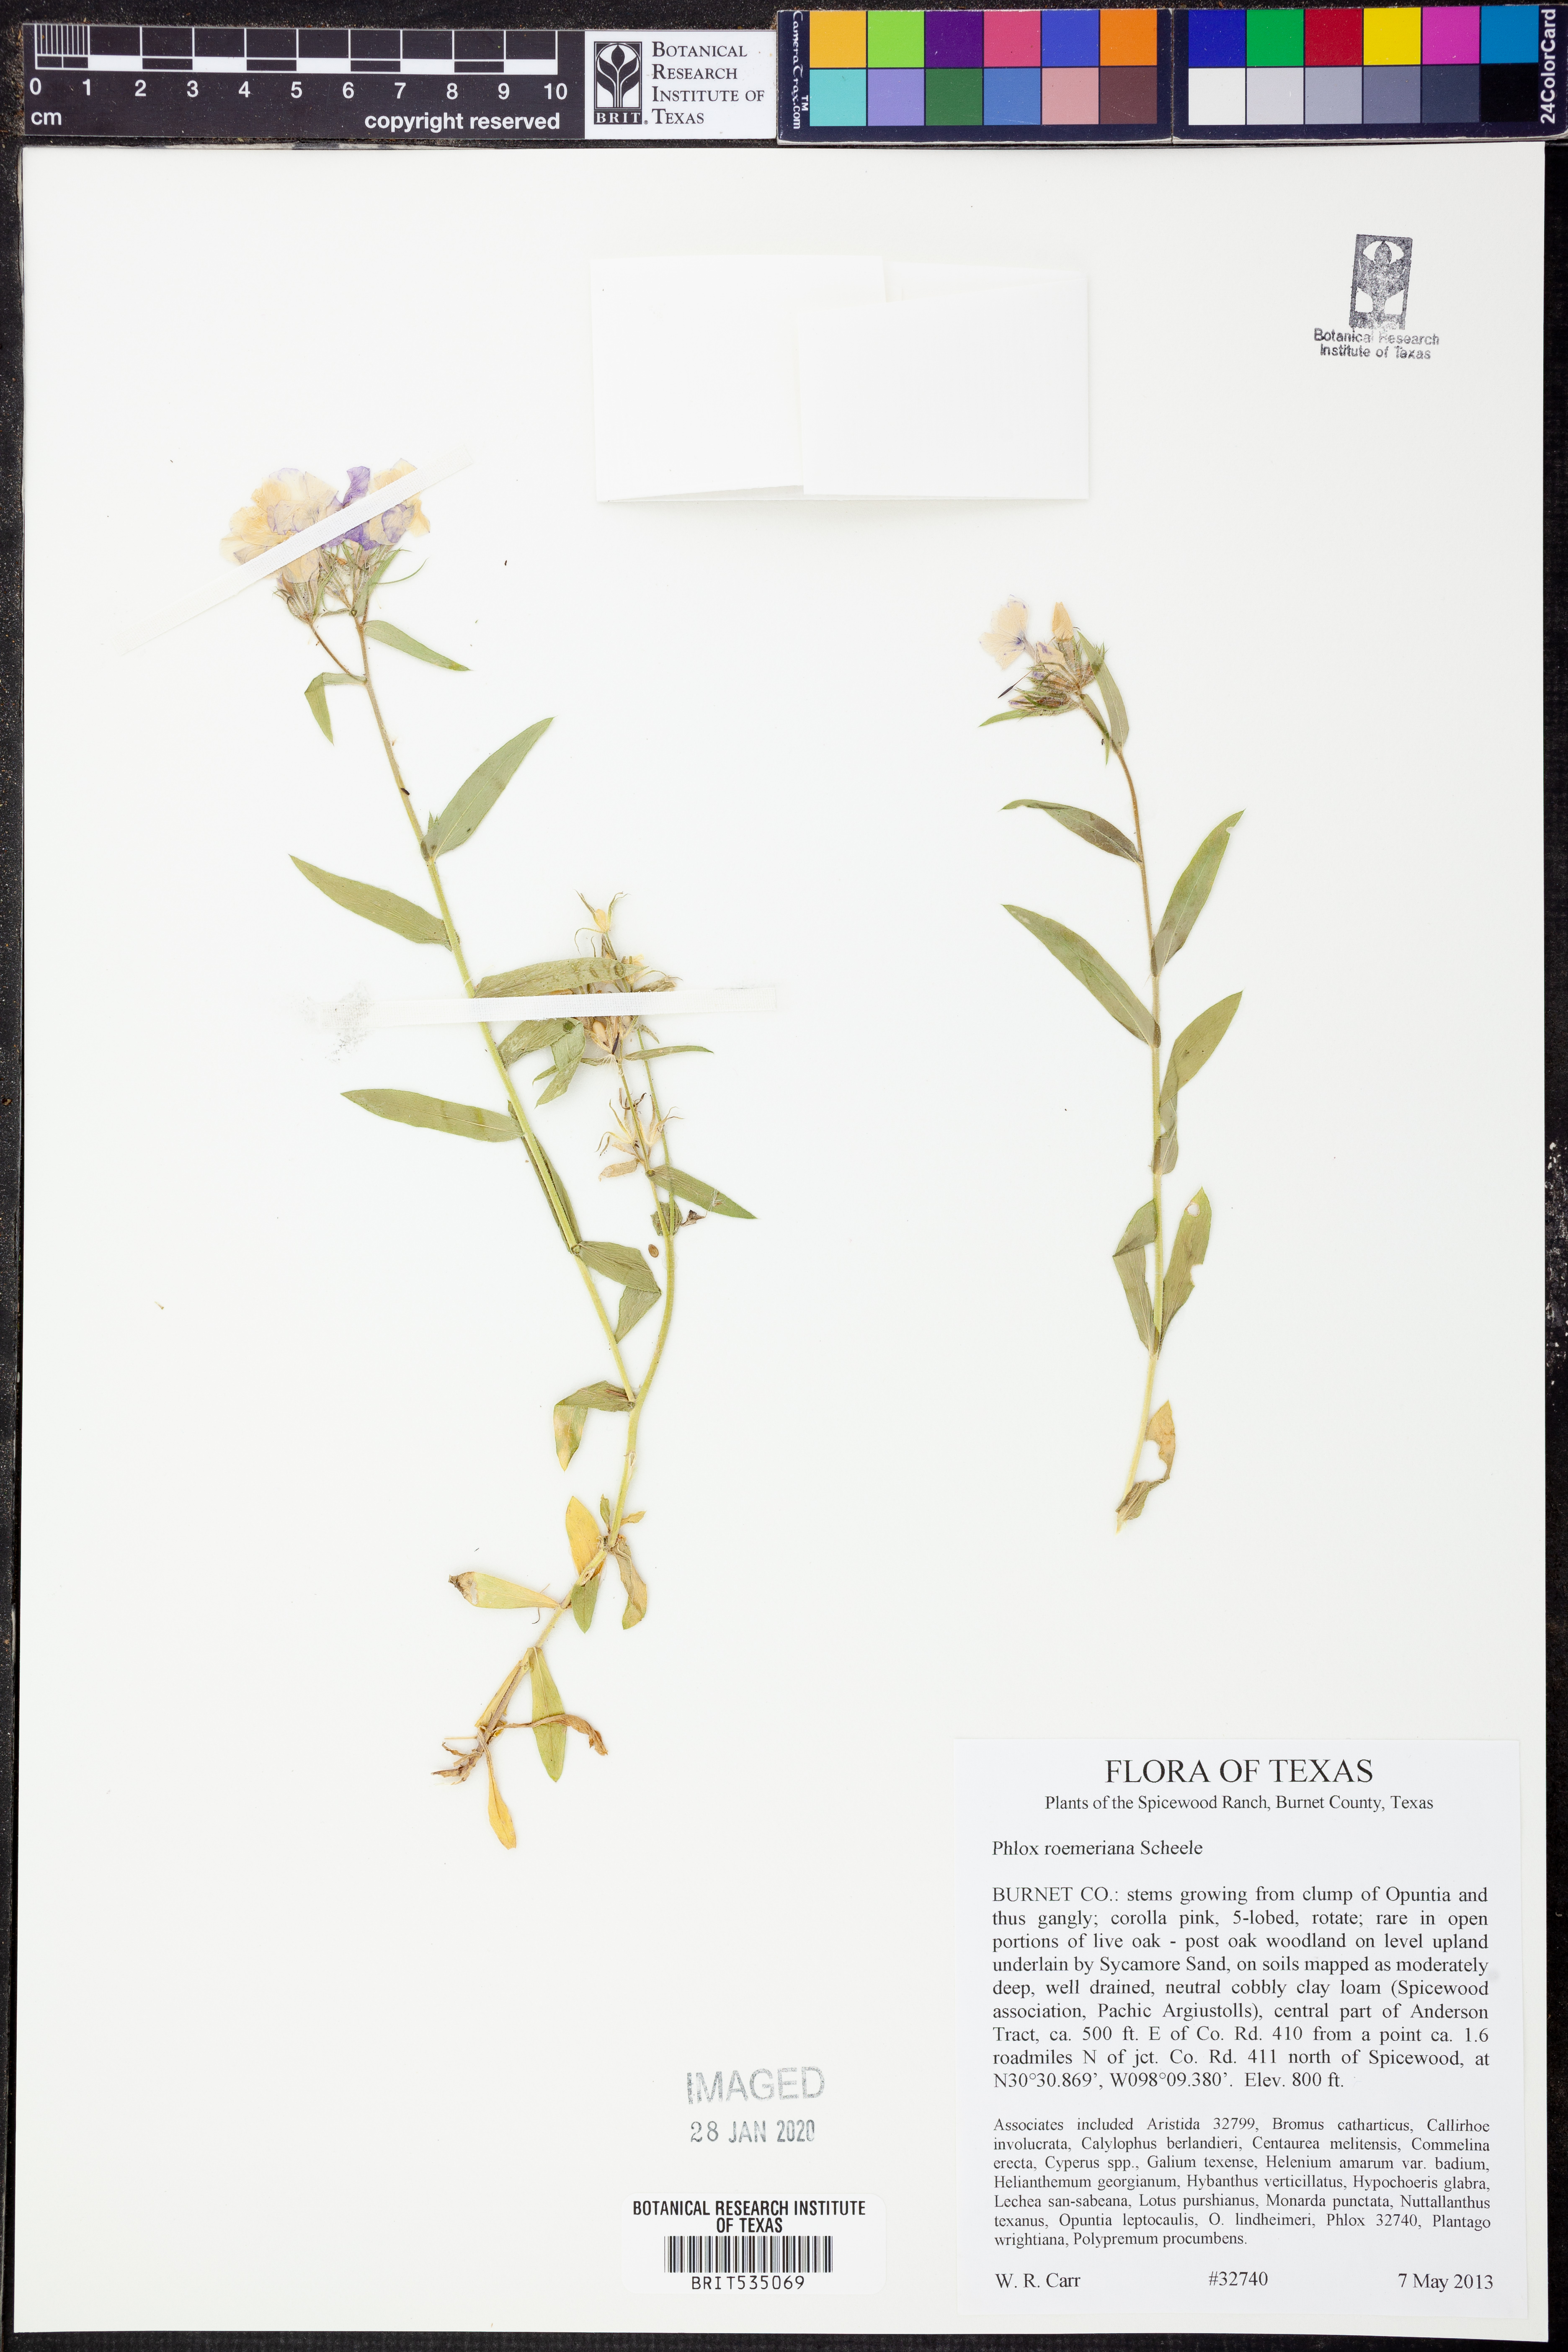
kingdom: Plantae
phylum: Tracheophyta
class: Magnoliopsida
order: Ericales
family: Polemoniaceae
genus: Phlox
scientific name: Phlox roemeriana
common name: Roemer's phlox
